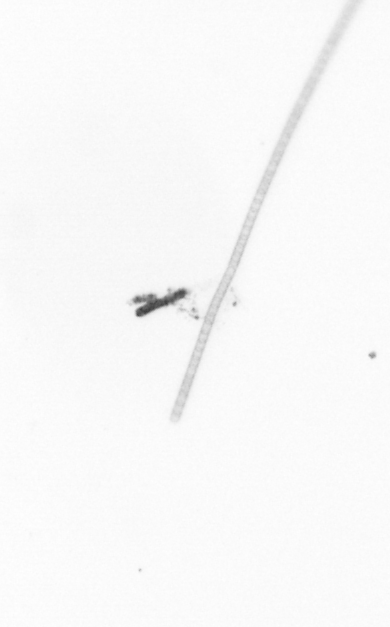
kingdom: Chromista
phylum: Ochrophyta
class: Bacillariophyceae
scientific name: Bacillariophyceae
